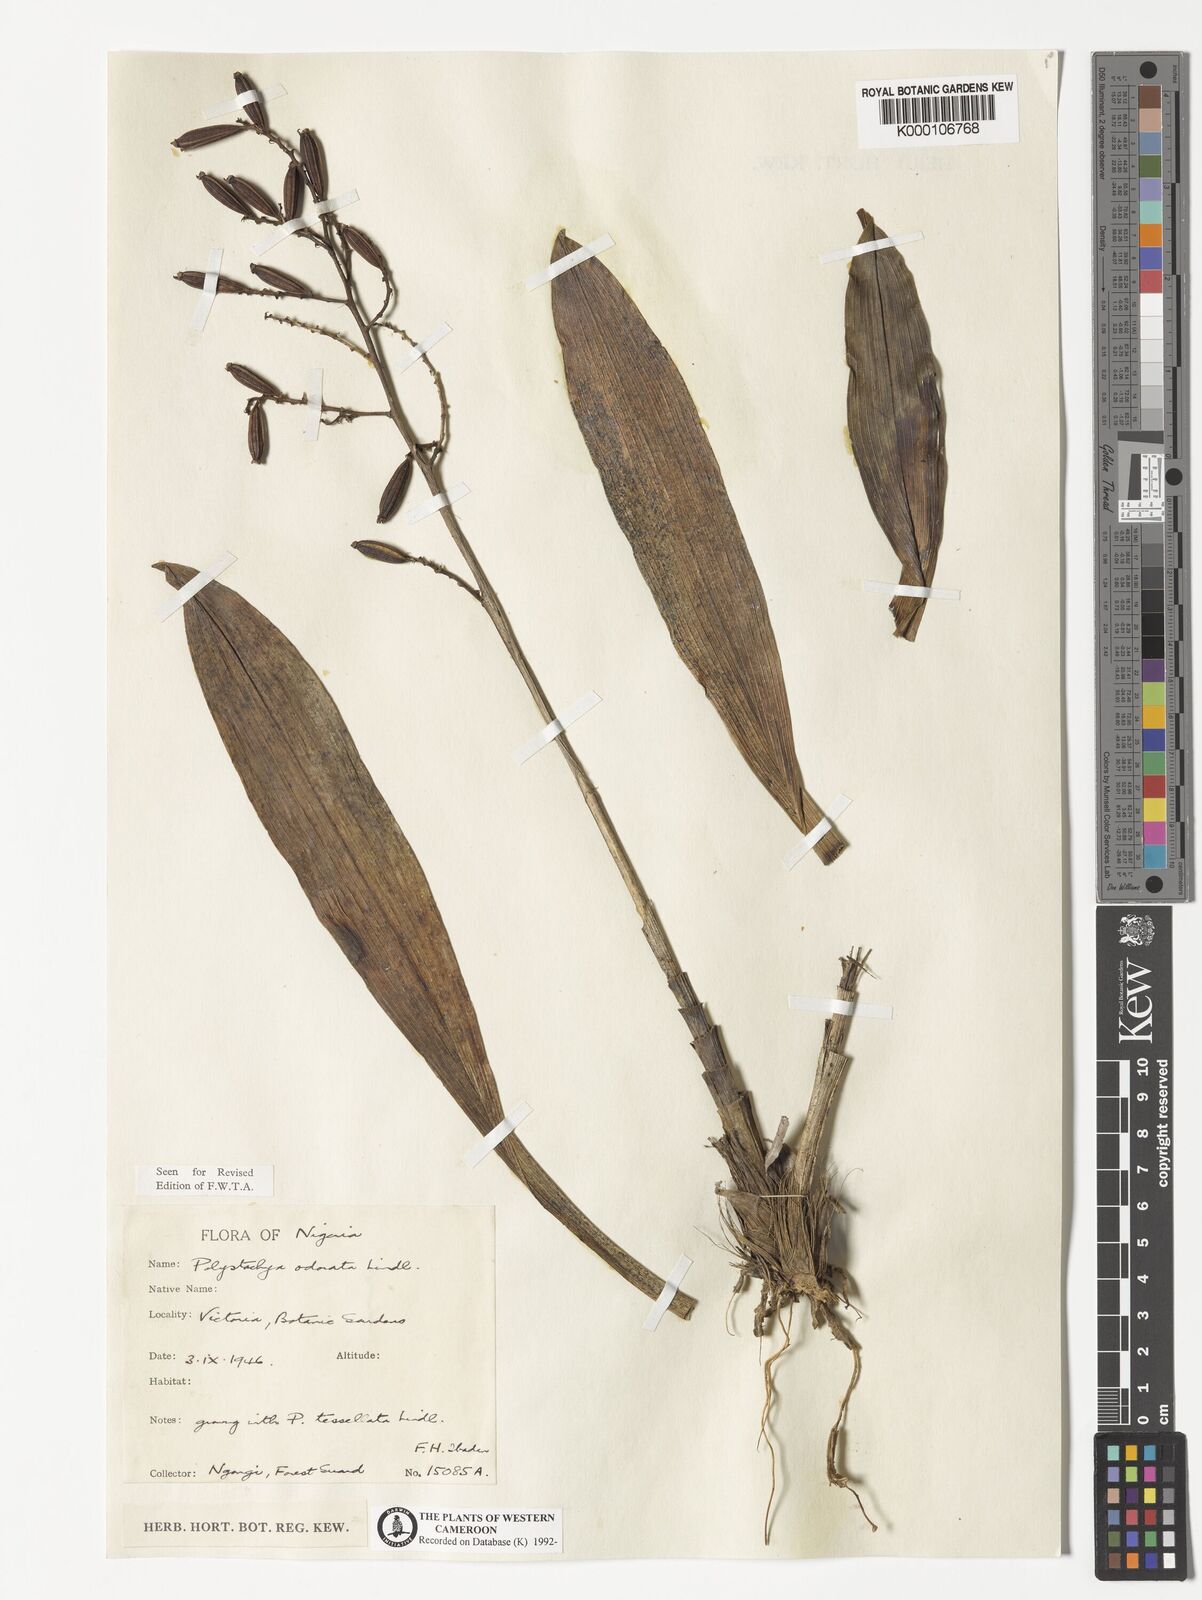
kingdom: Plantae
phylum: Tracheophyta
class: Liliopsida
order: Asparagales
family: Orchidaceae
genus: Polystachya
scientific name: Polystachya odorata
